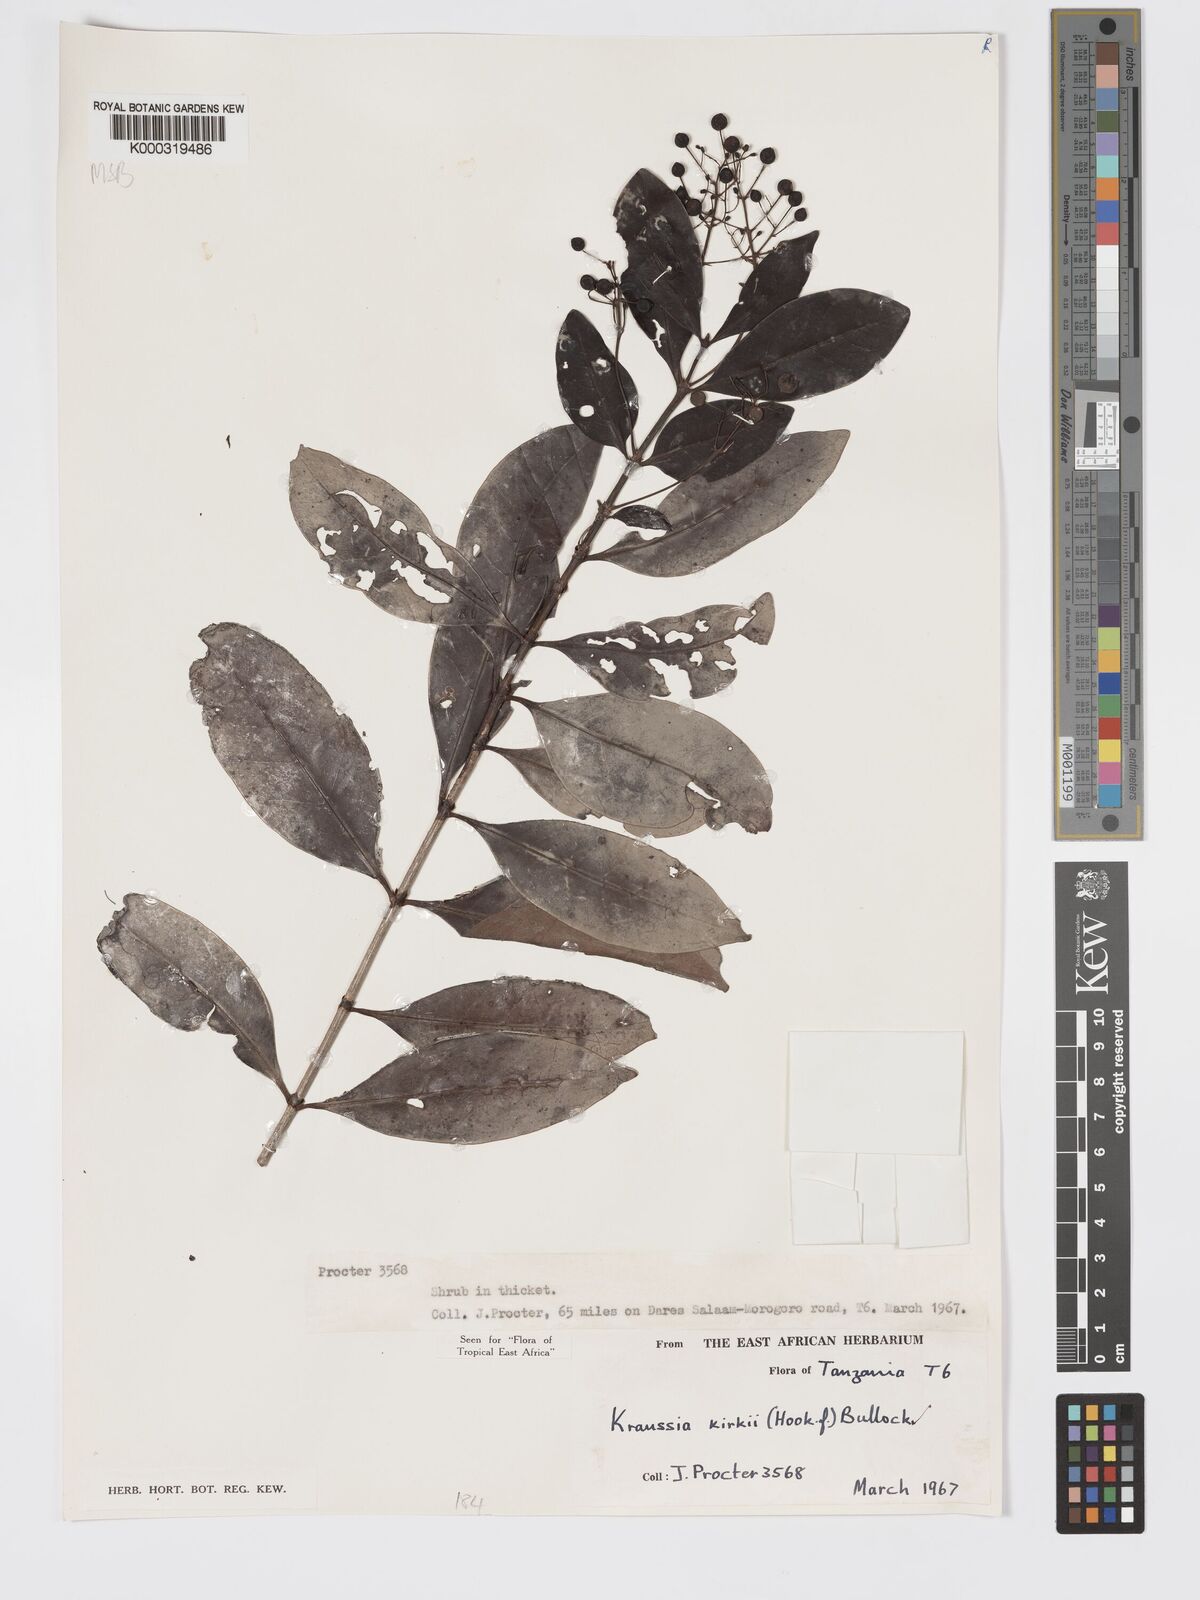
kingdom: Plantae
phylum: Tracheophyta
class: Magnoliopsida
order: Gentianales
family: Rubiaceae
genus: Kraussia
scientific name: Kraussia kirkii
